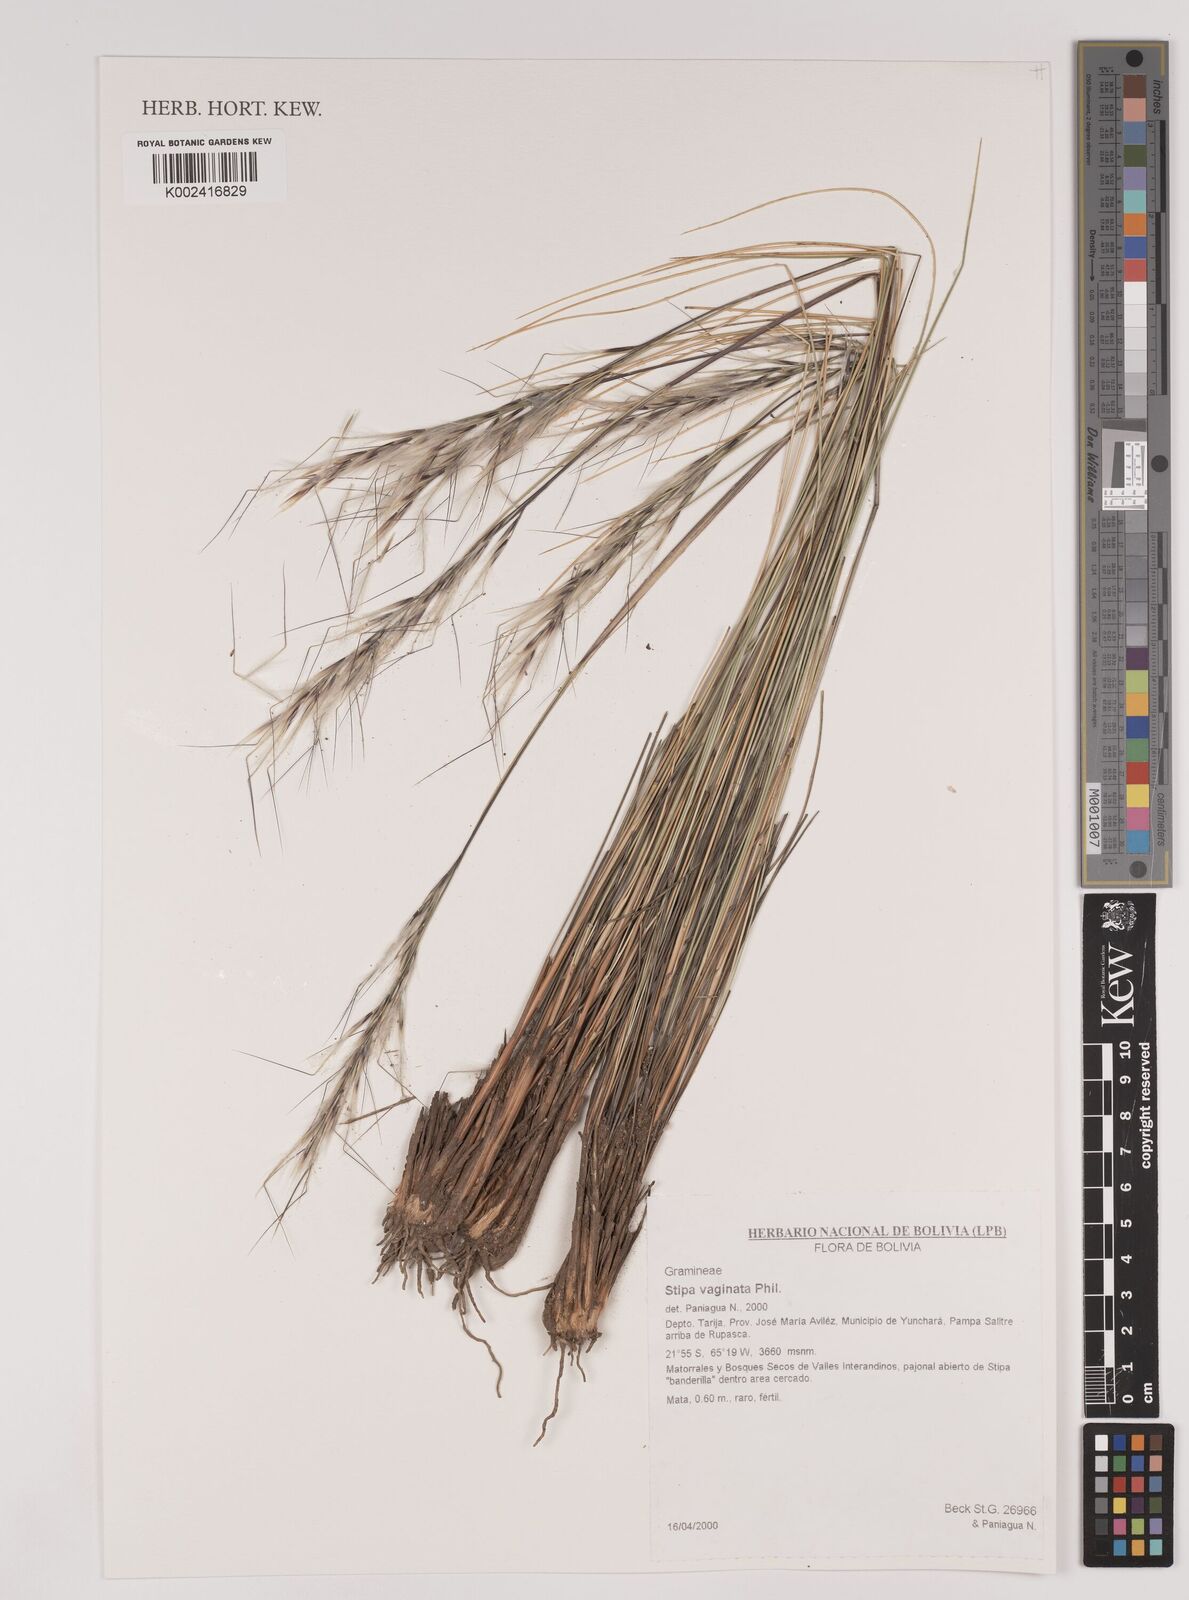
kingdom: Plantae
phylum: Tracheophyta
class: Liliopsida
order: Poales
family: Poaceae
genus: Pappostipa
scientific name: Pappostipa vaginata
